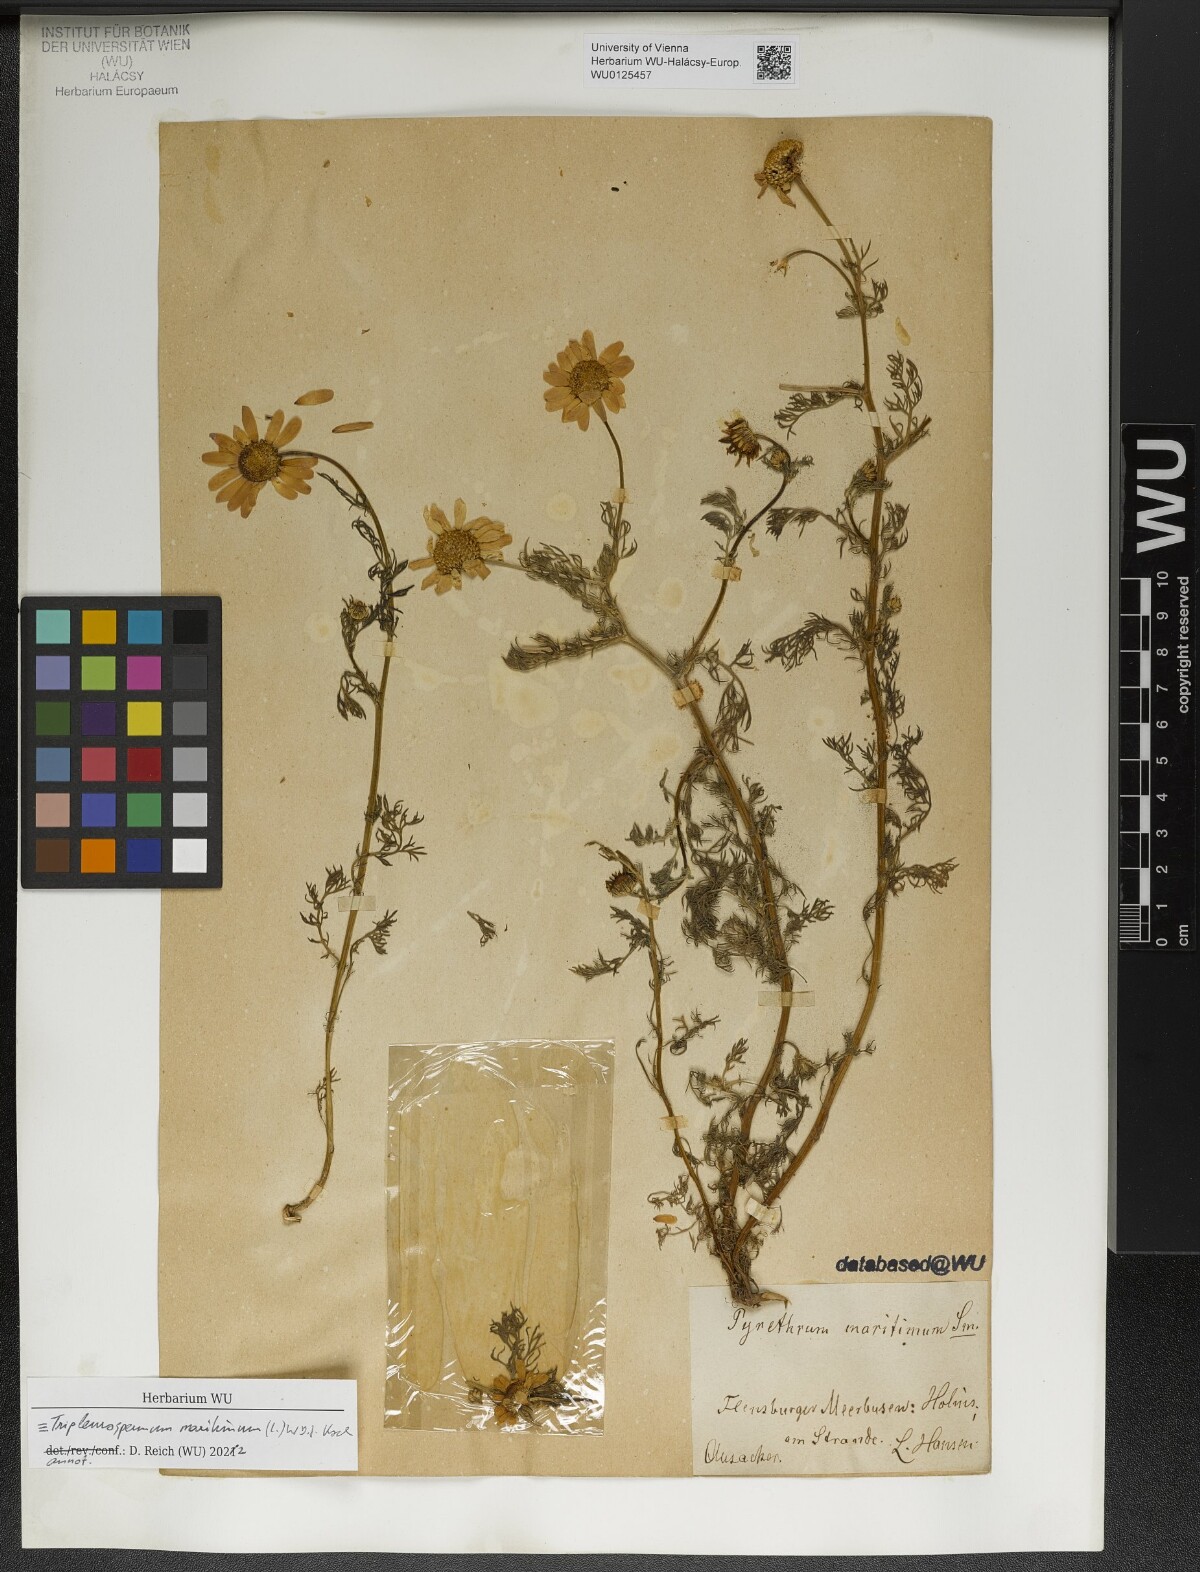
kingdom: Plantae
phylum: Tracheophyta
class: Magnoliopsida
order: Asterales
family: Asteraceae
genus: Tripleurospermum
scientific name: Tripleurospermum maritimum
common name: Sea mayweed
